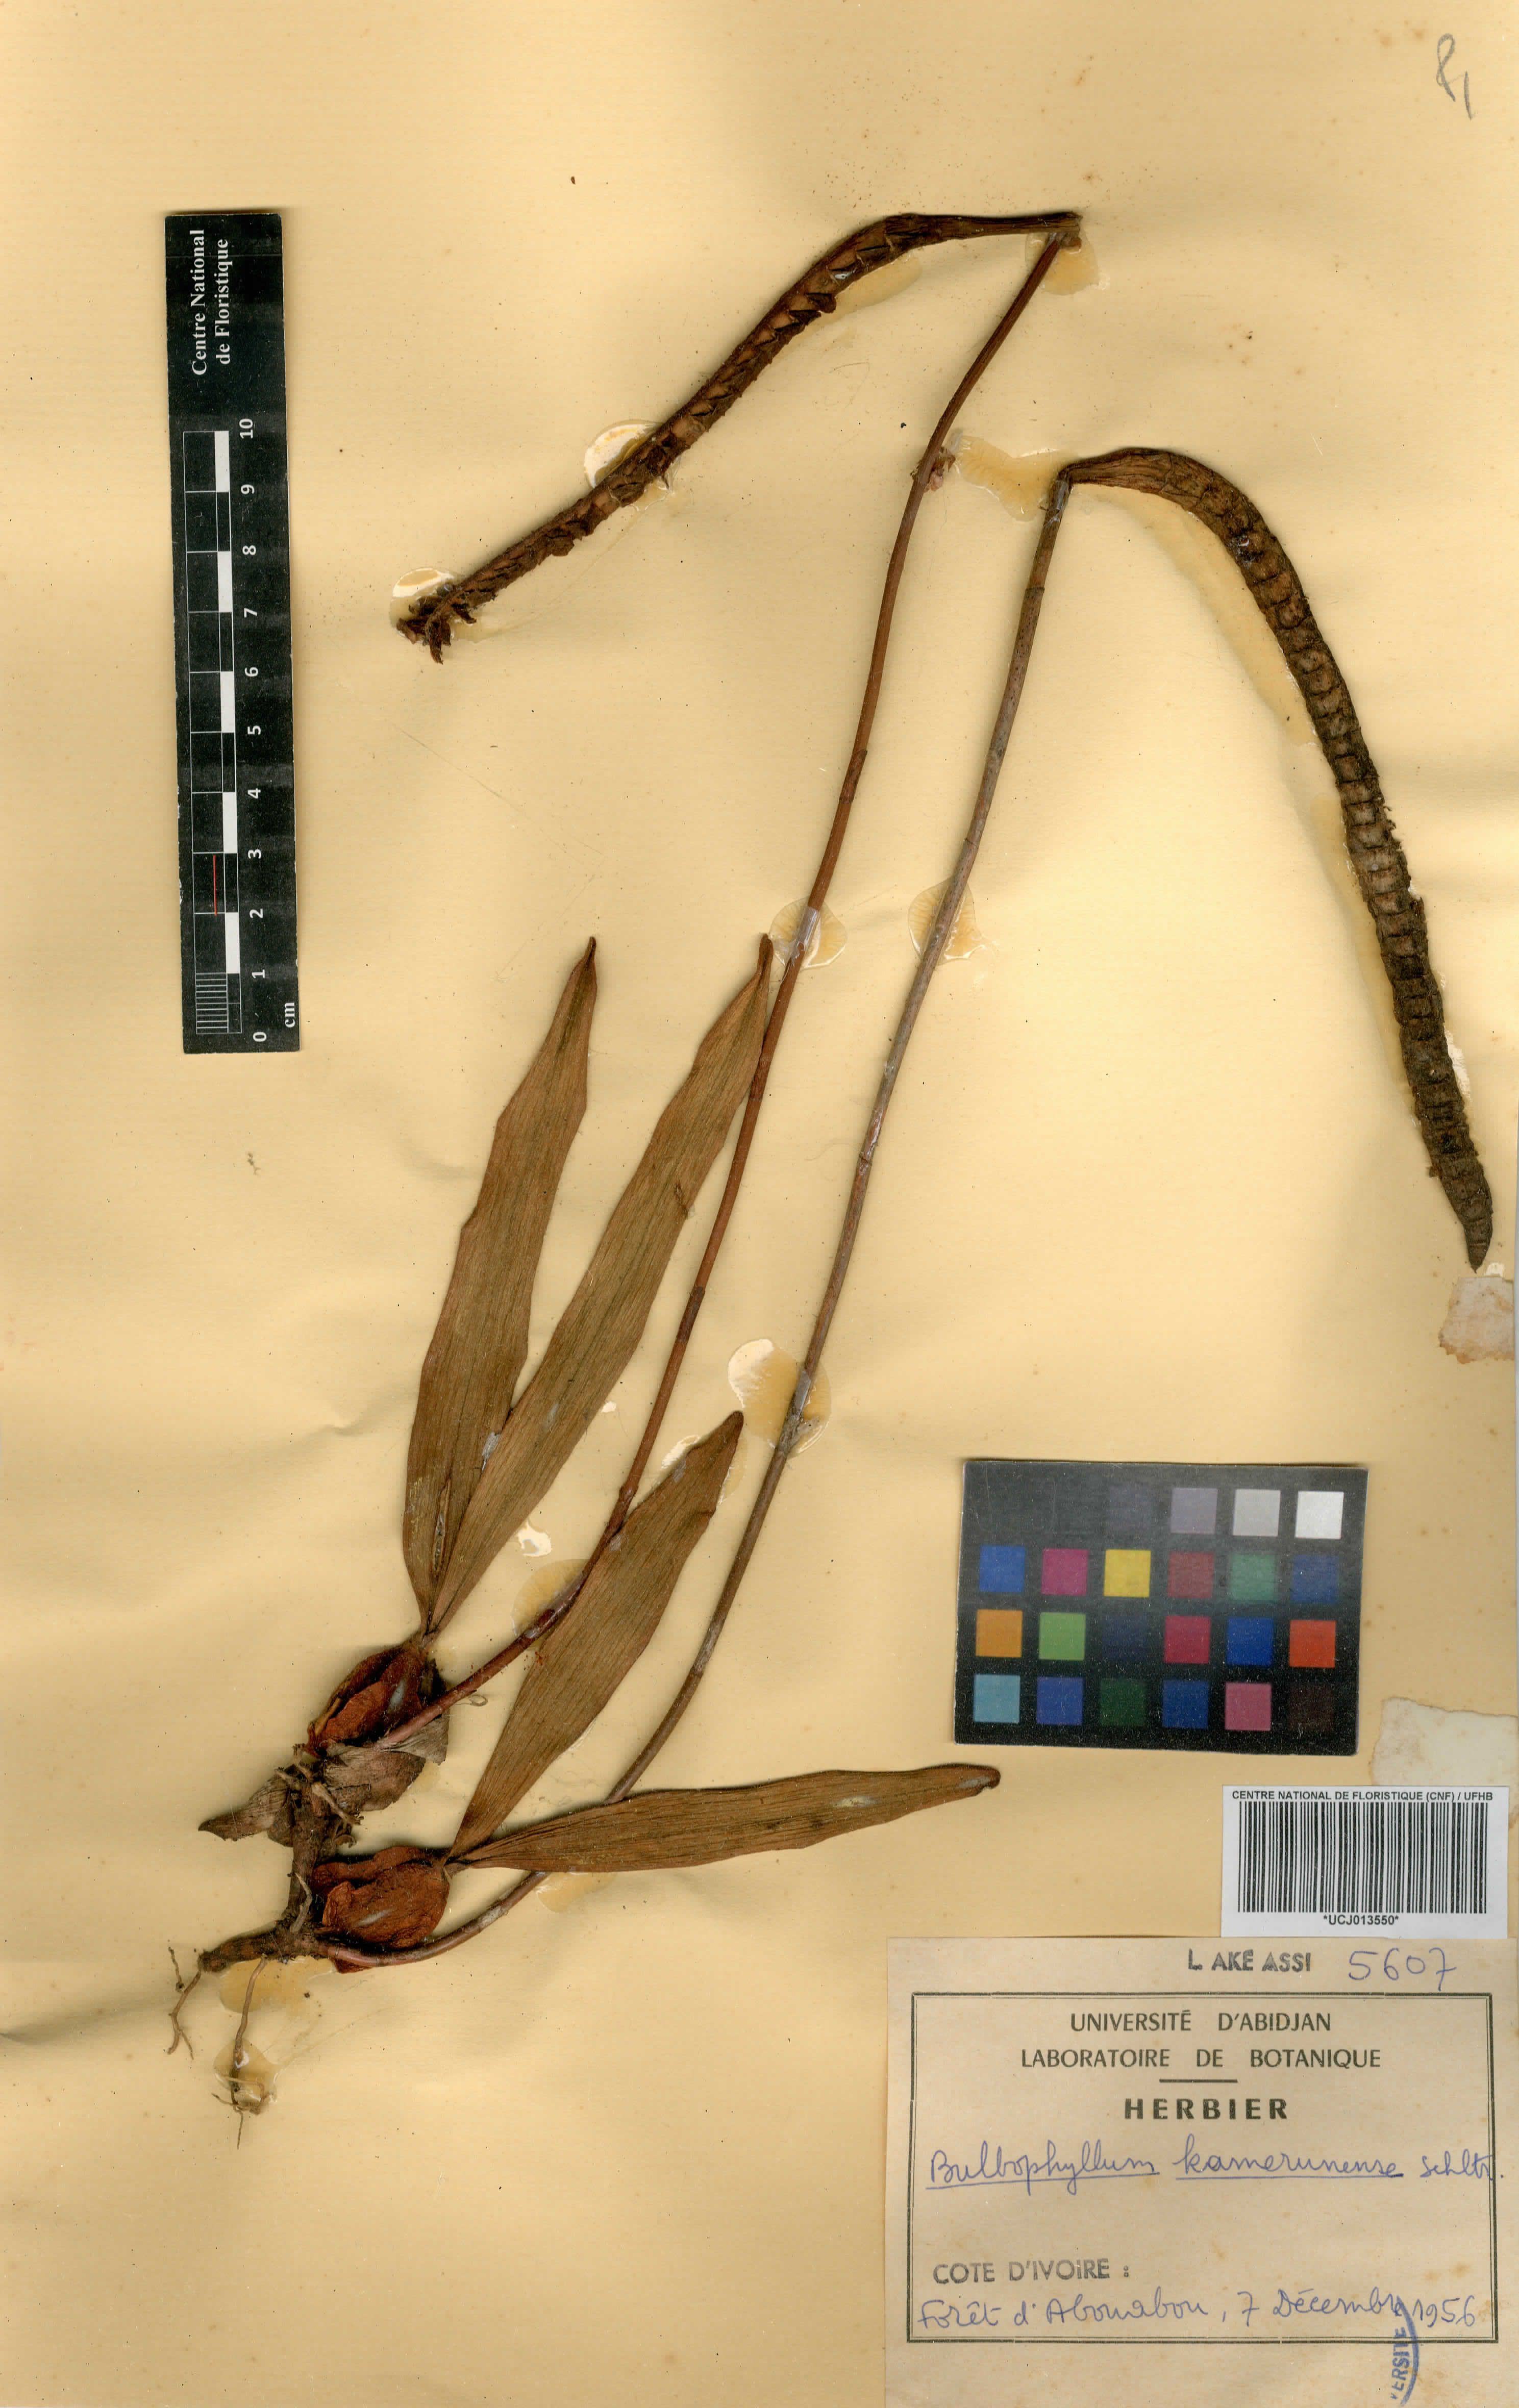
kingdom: Plantae
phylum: Tracheophyta
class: Liliopsida
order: Asparagales
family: Orchidaceae
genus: Bulbophyllum
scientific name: Bulbophyllum imbricatum
